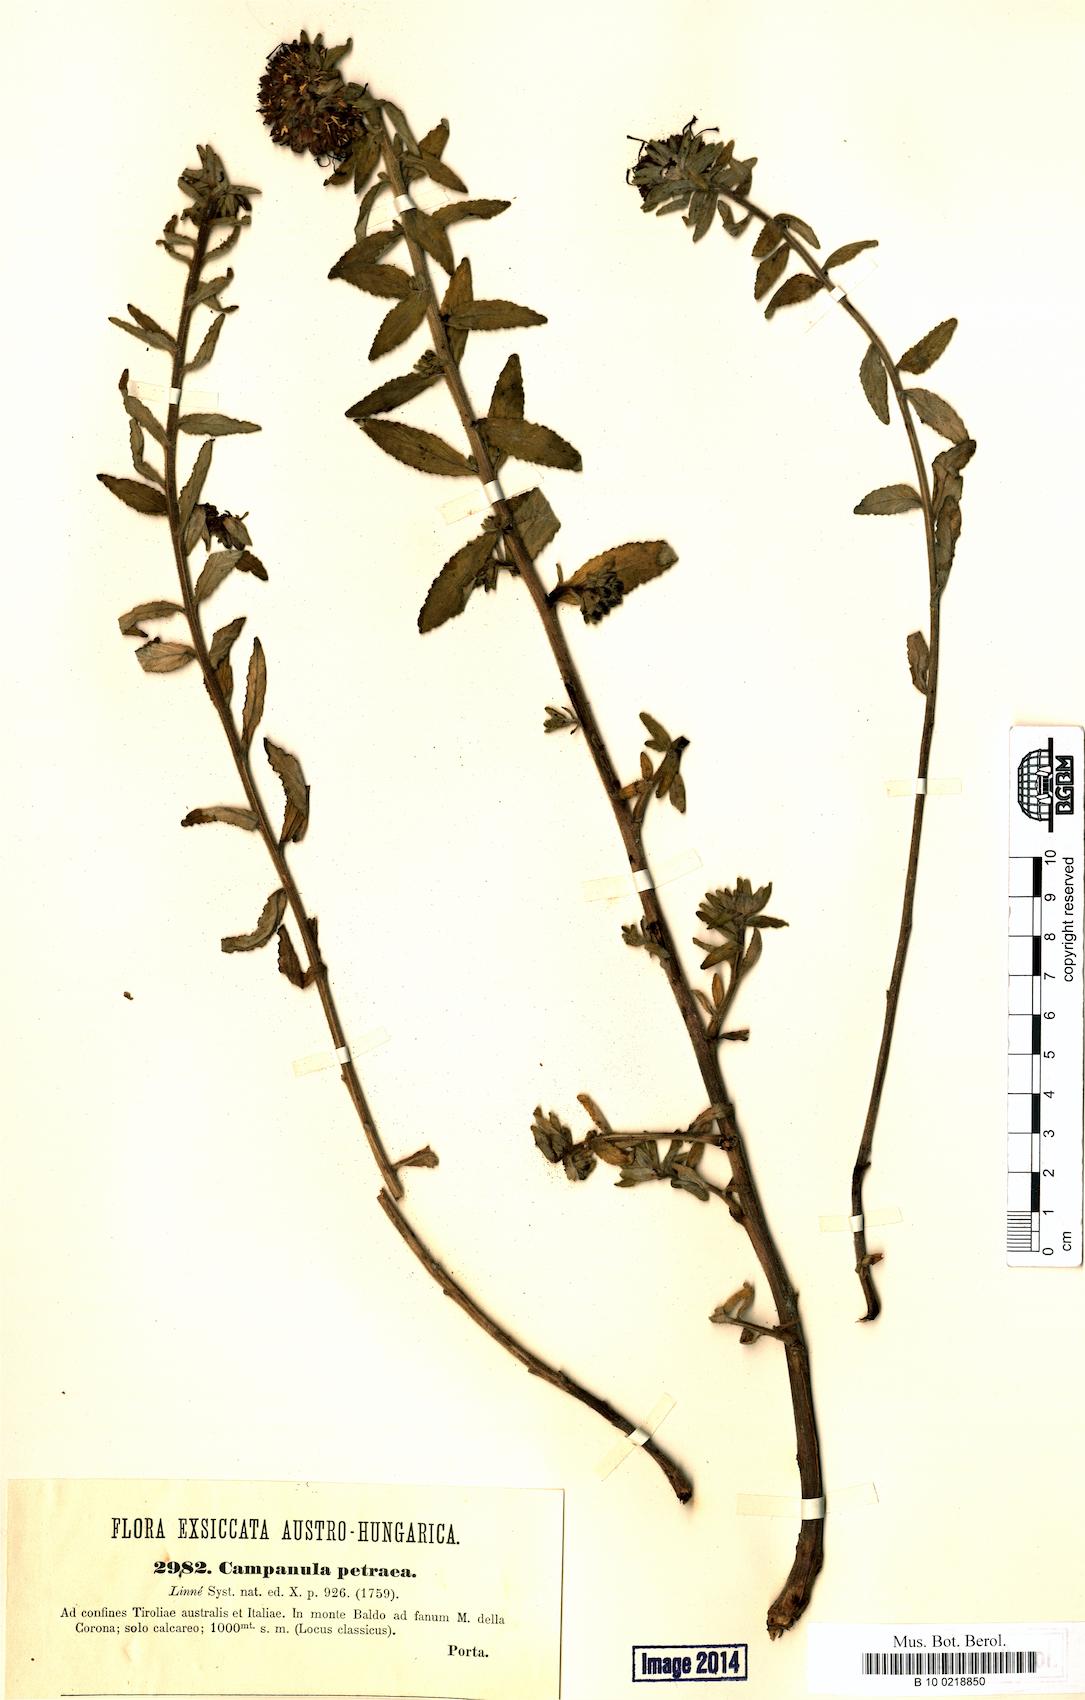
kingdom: Plantae
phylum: Tracheophyta
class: Magnoliopsida
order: Asterales
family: Campanulaceae
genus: Campanula
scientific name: Campanula petraea
